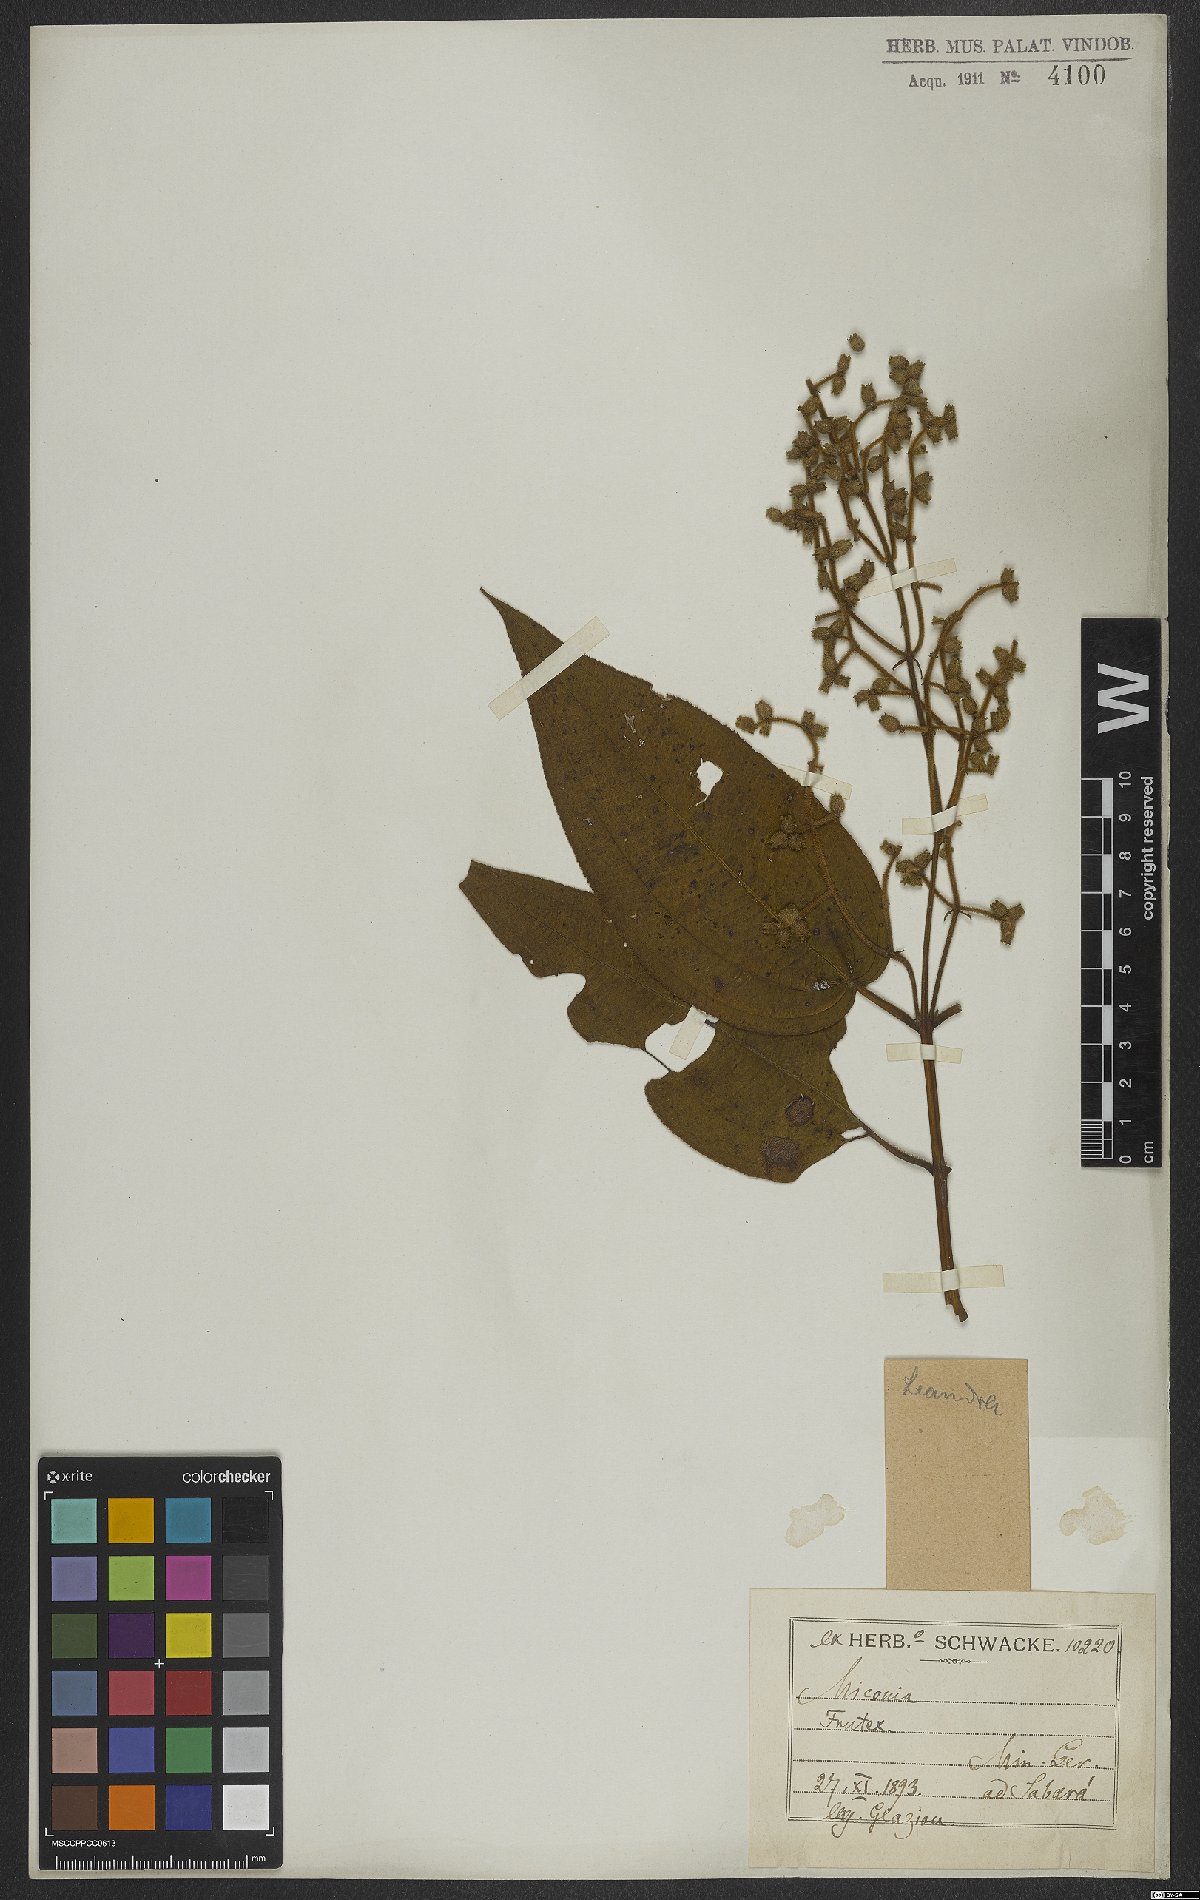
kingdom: Plantae
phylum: Tracheophyta
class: Magnoliopsida
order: Myrtales
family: Melastomataceae
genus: Miconia
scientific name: Miconia
